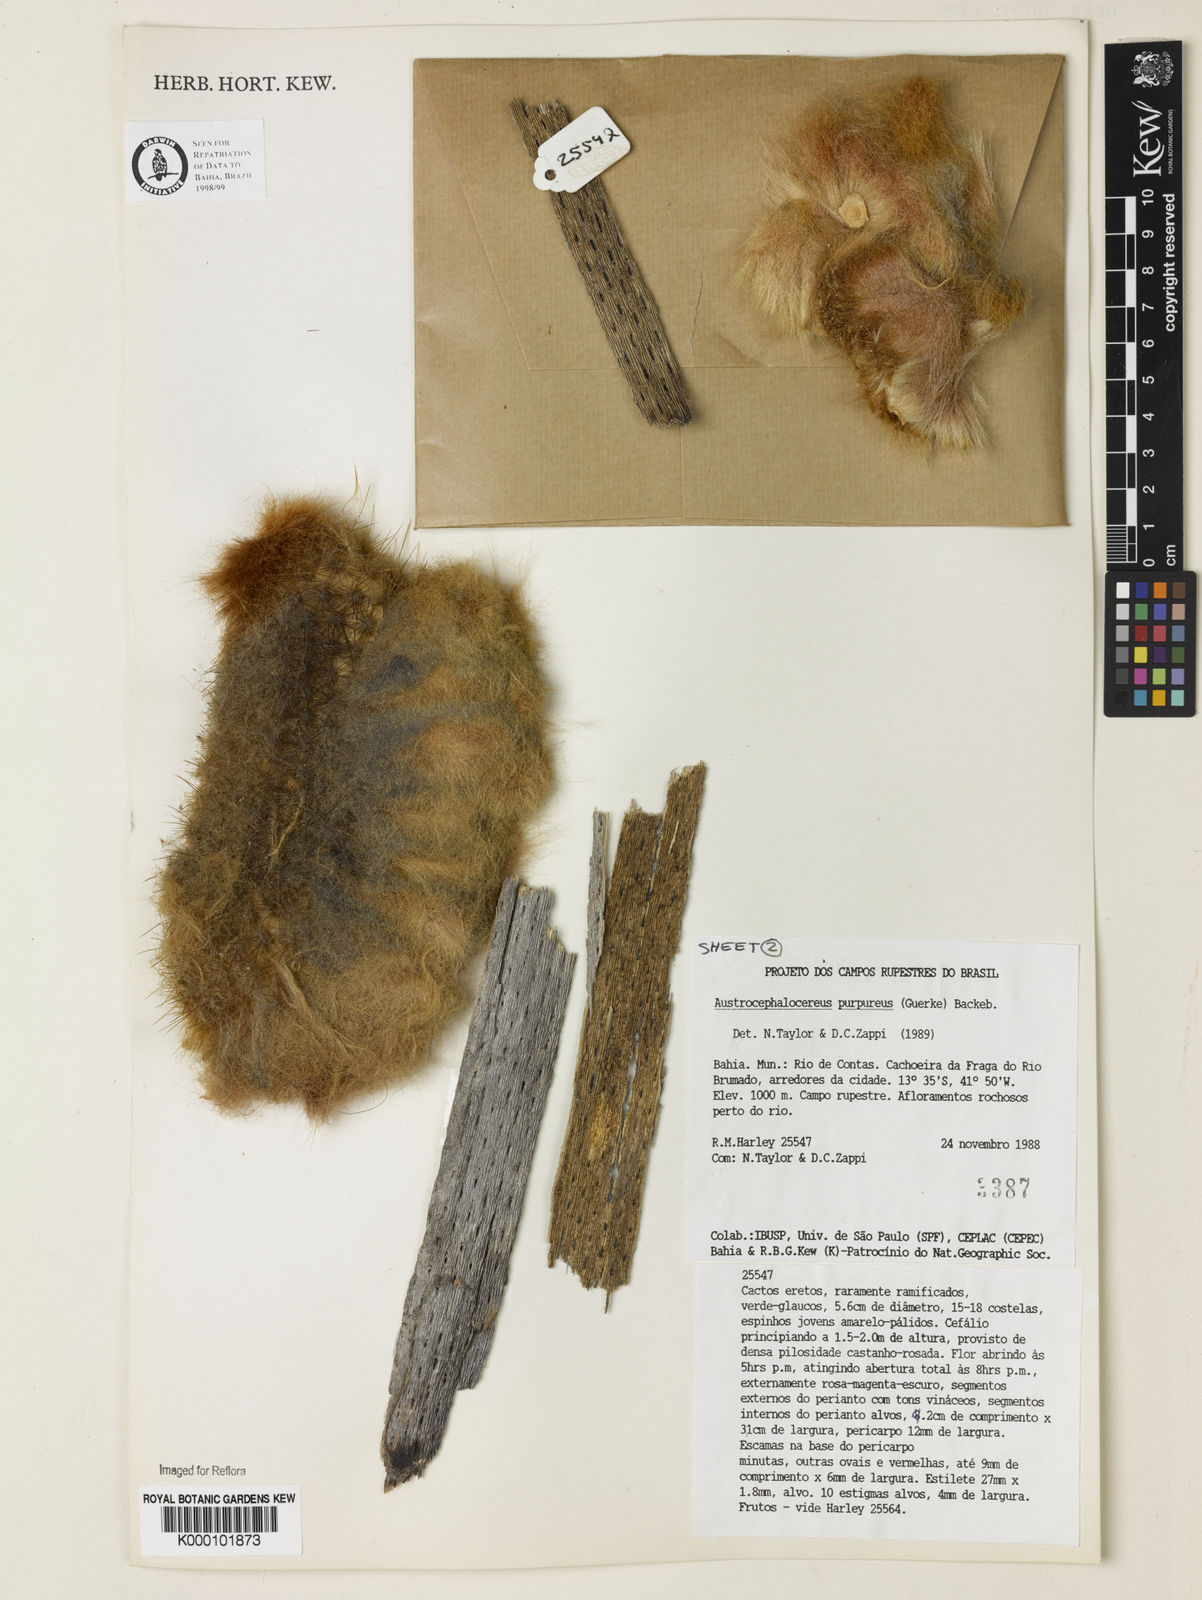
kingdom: Plantae
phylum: Tracheophyta
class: Magnoliopsida
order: Caryophyllales
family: Cactaceae
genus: Micranthocereus
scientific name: Micranthocereus purpureus
